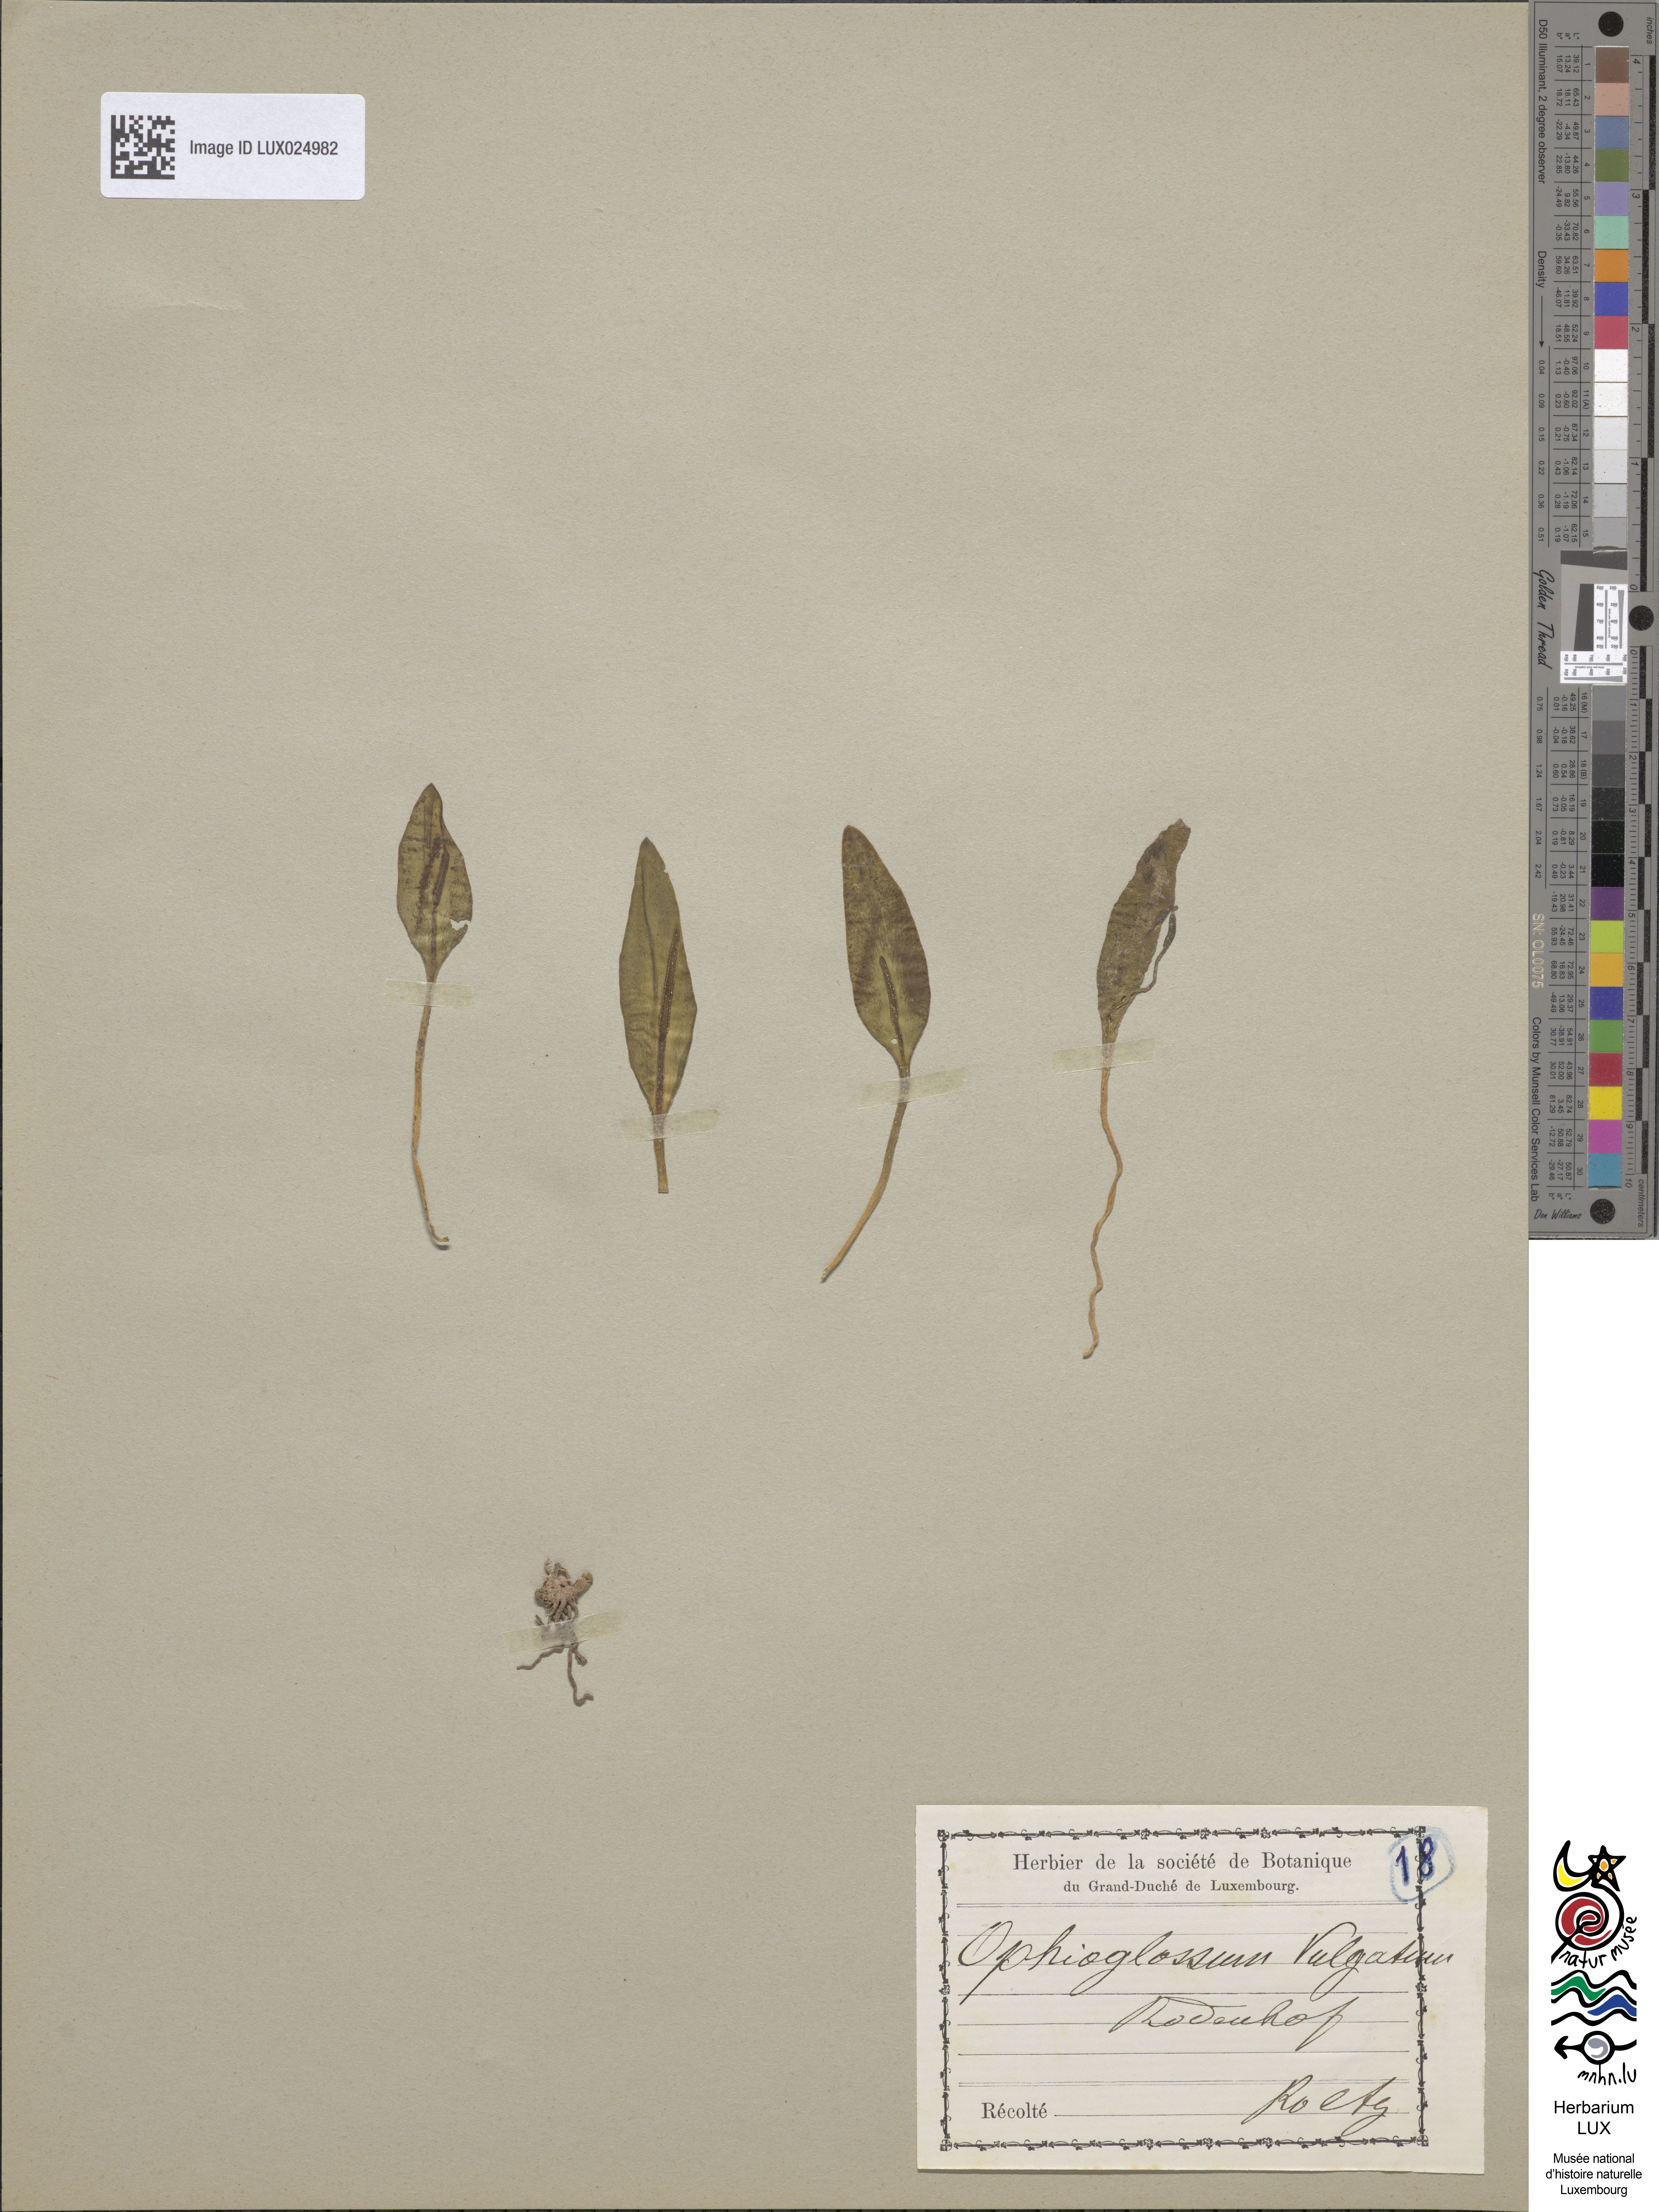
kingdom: Plantae
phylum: Tracheophyta
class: Polypodiopsida
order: Ophioglossales
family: Ophioglossaceae
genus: Ophioglossum
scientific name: Ophioglossum vulgatum
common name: Adder's-tongue
